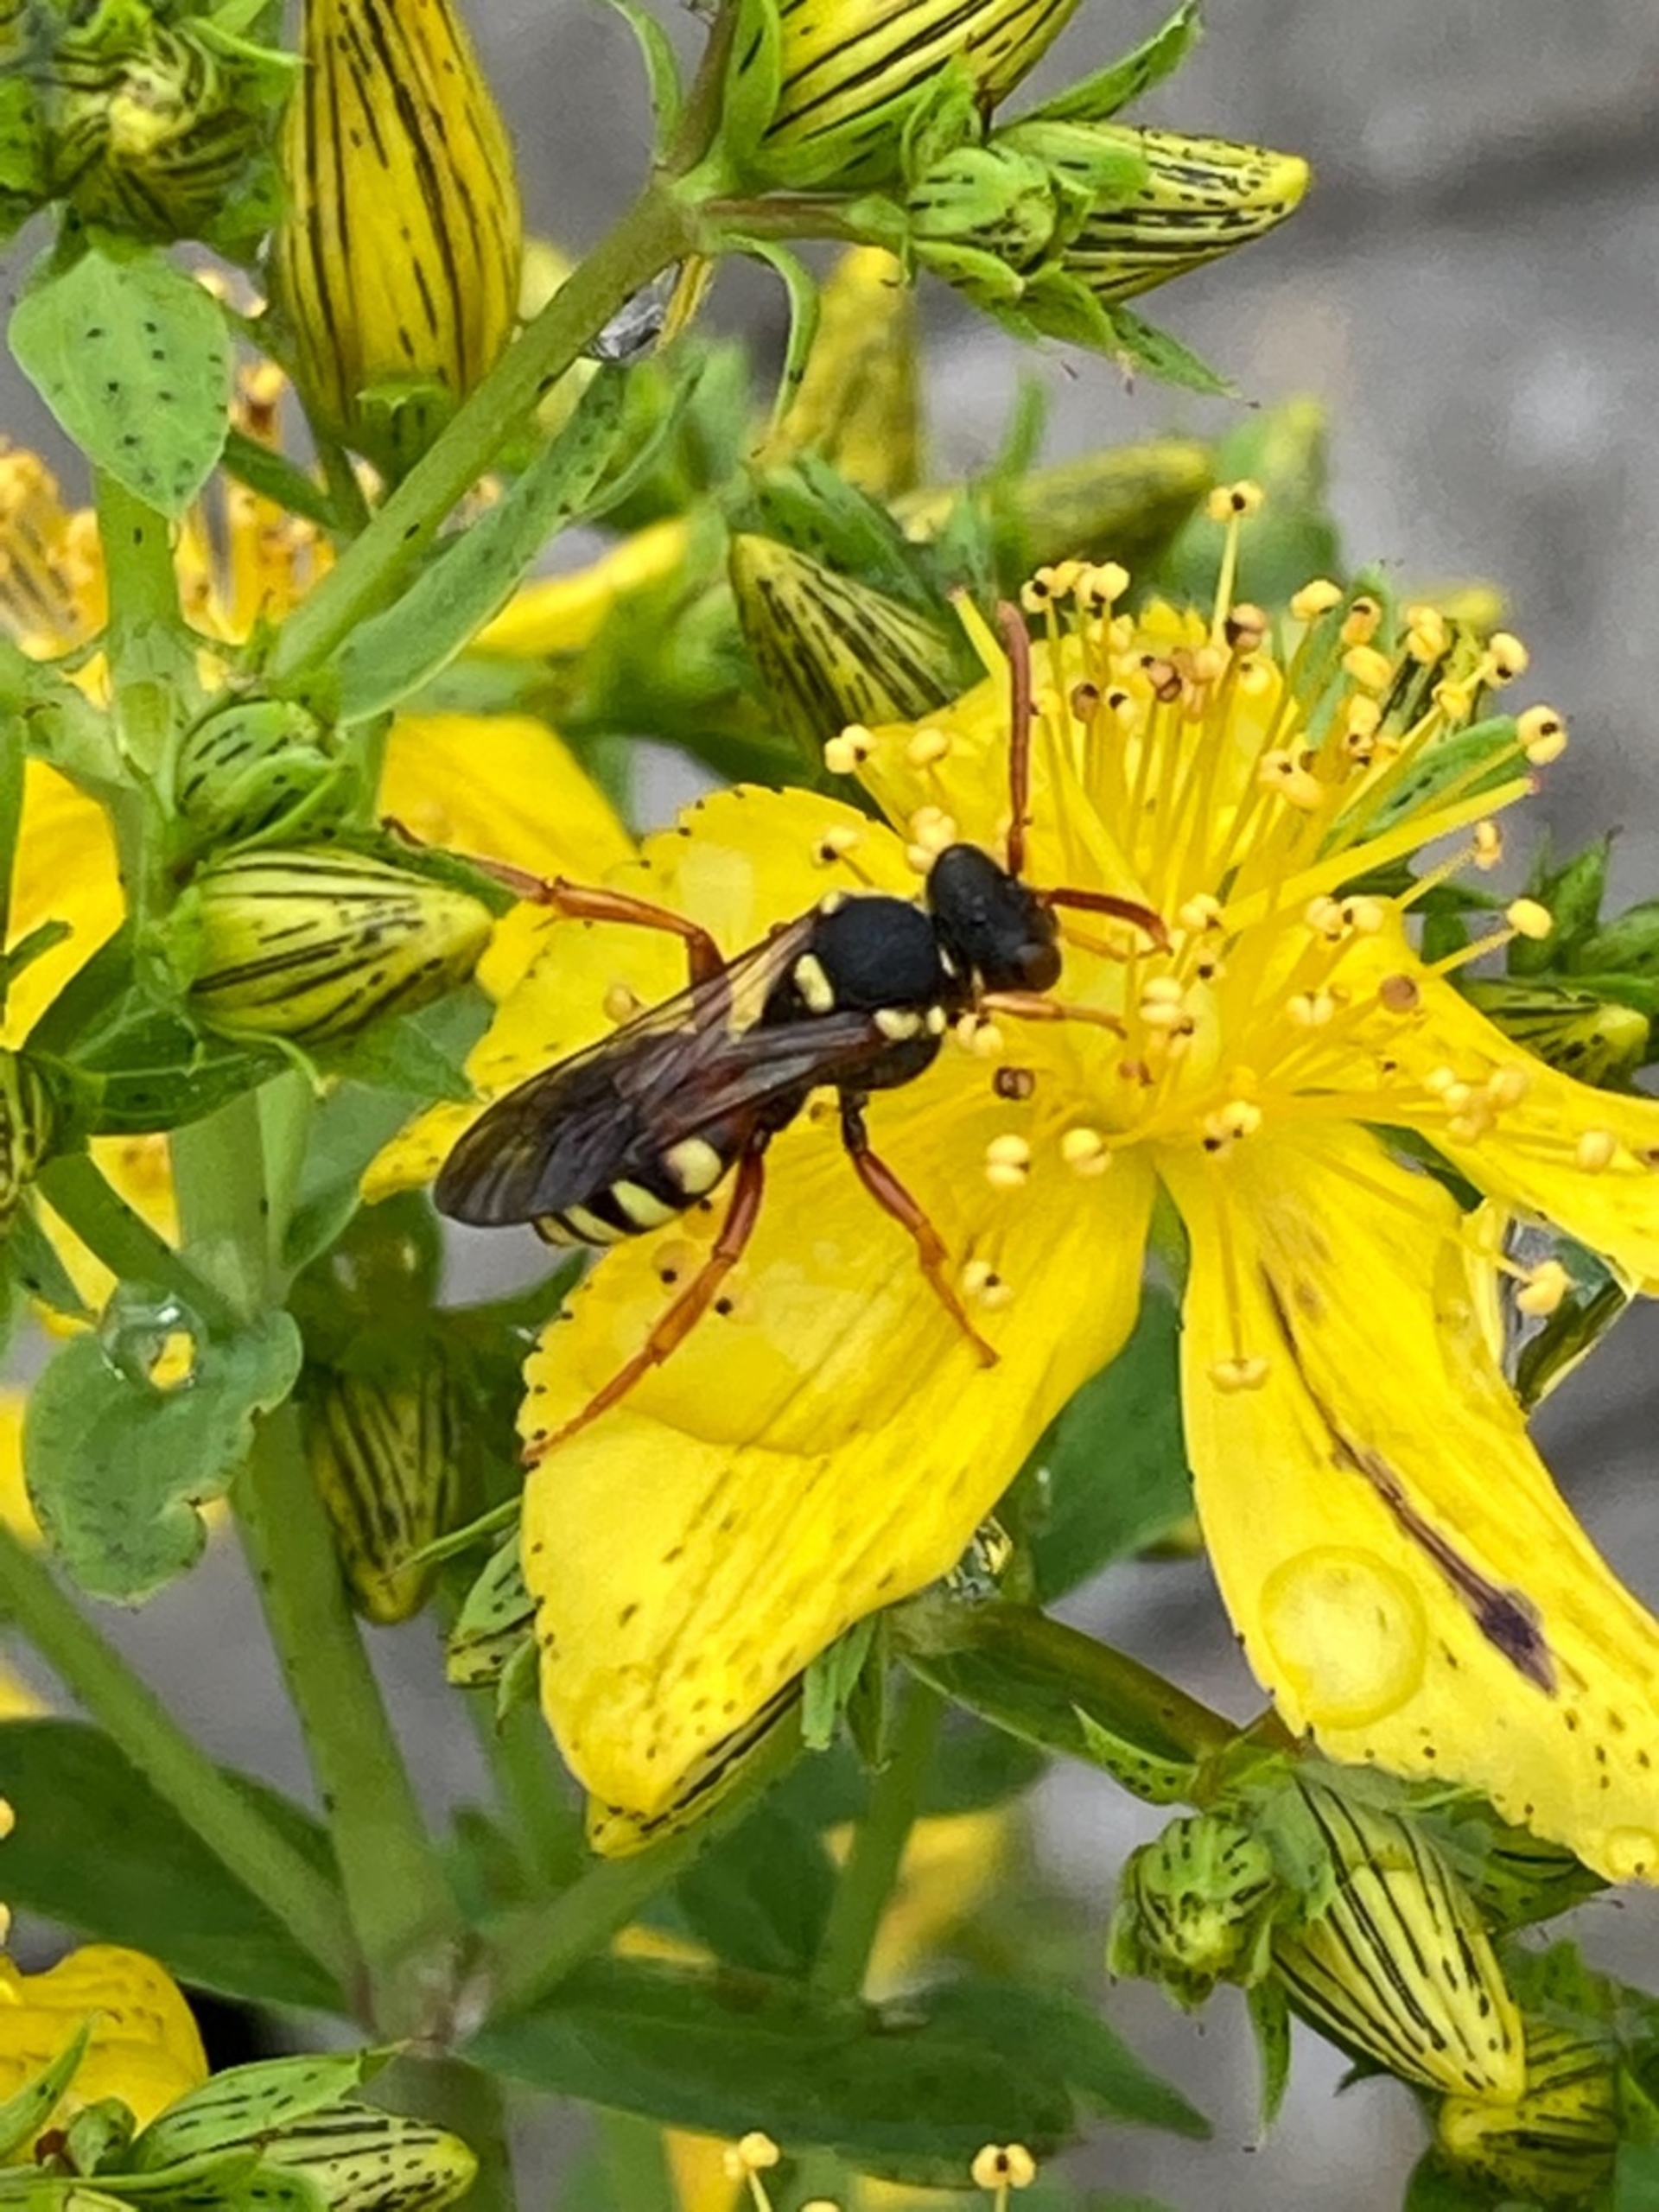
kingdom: Animalia
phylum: Arthropoda
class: Insecta
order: Hymenoptera
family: Apidae
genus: Nomada
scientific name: Nomada fucata
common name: Pragthvepsebi
